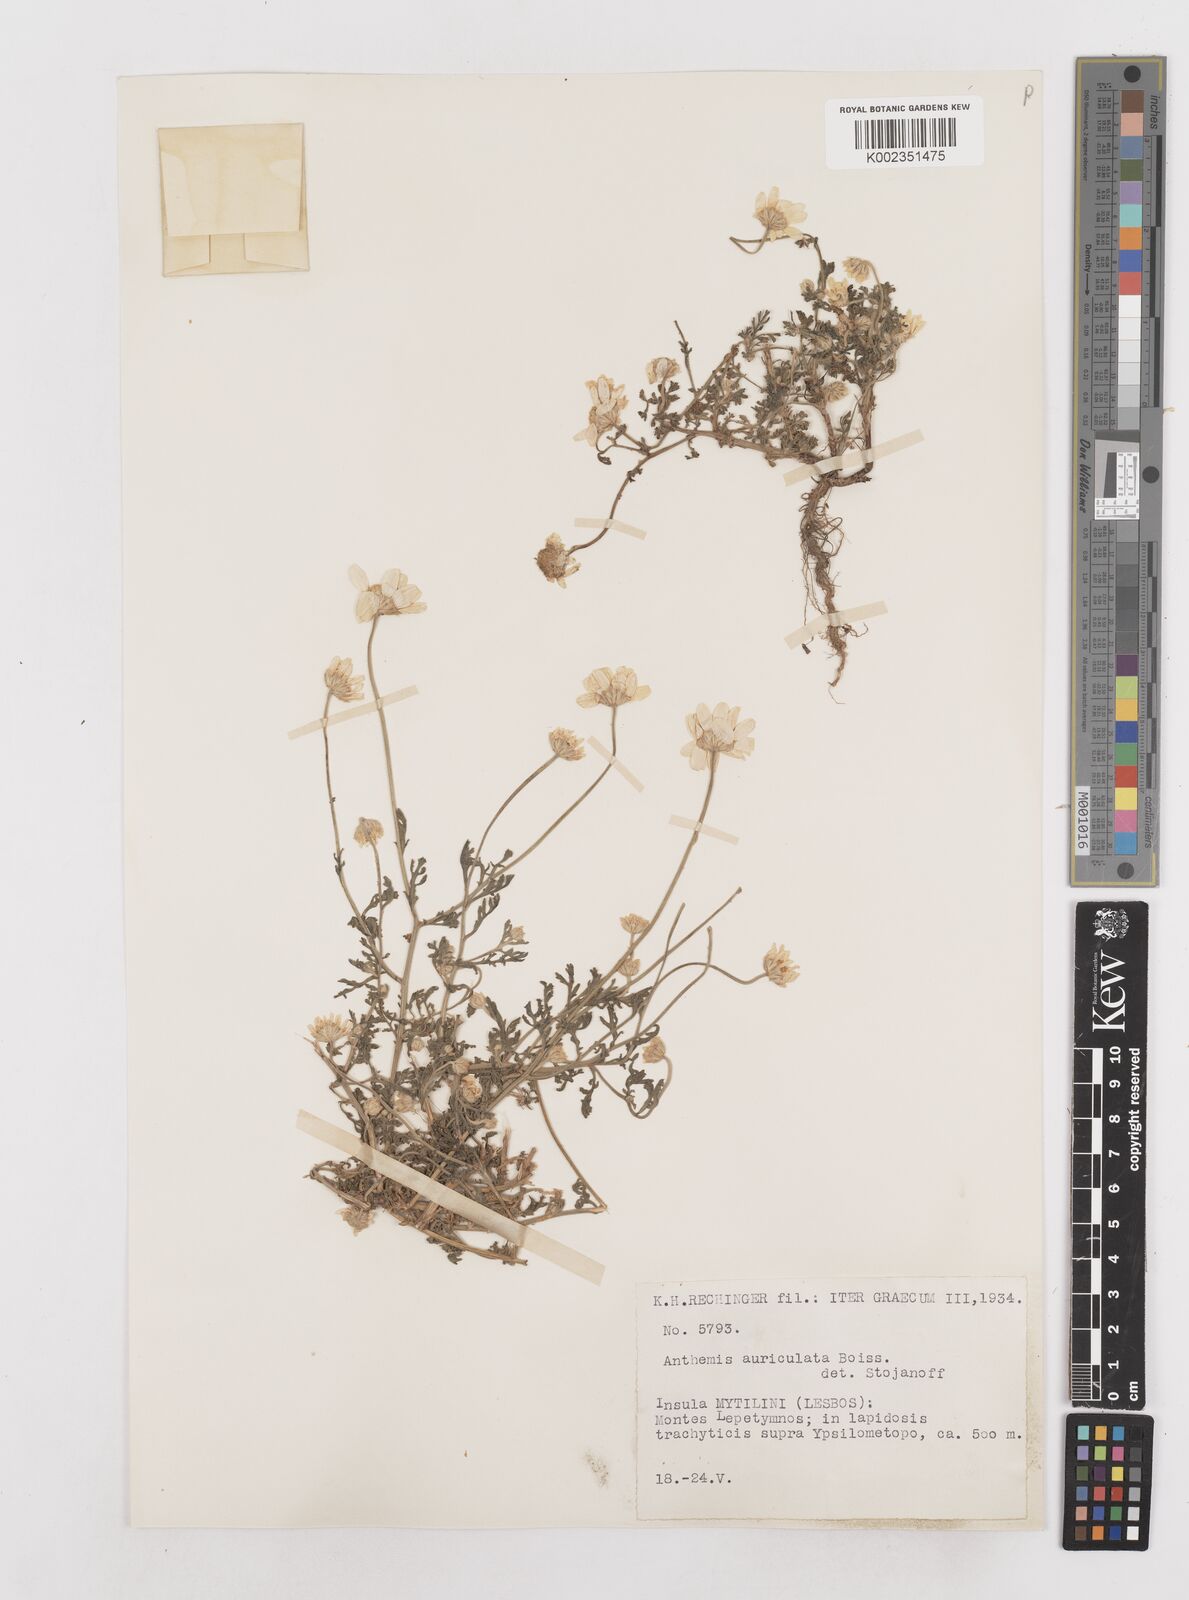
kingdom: Plantae
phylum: Tracheophyta
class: Magnoliopsida
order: Asterales
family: Asteraceae
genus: Anthemis
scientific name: Anthemis auriculata
